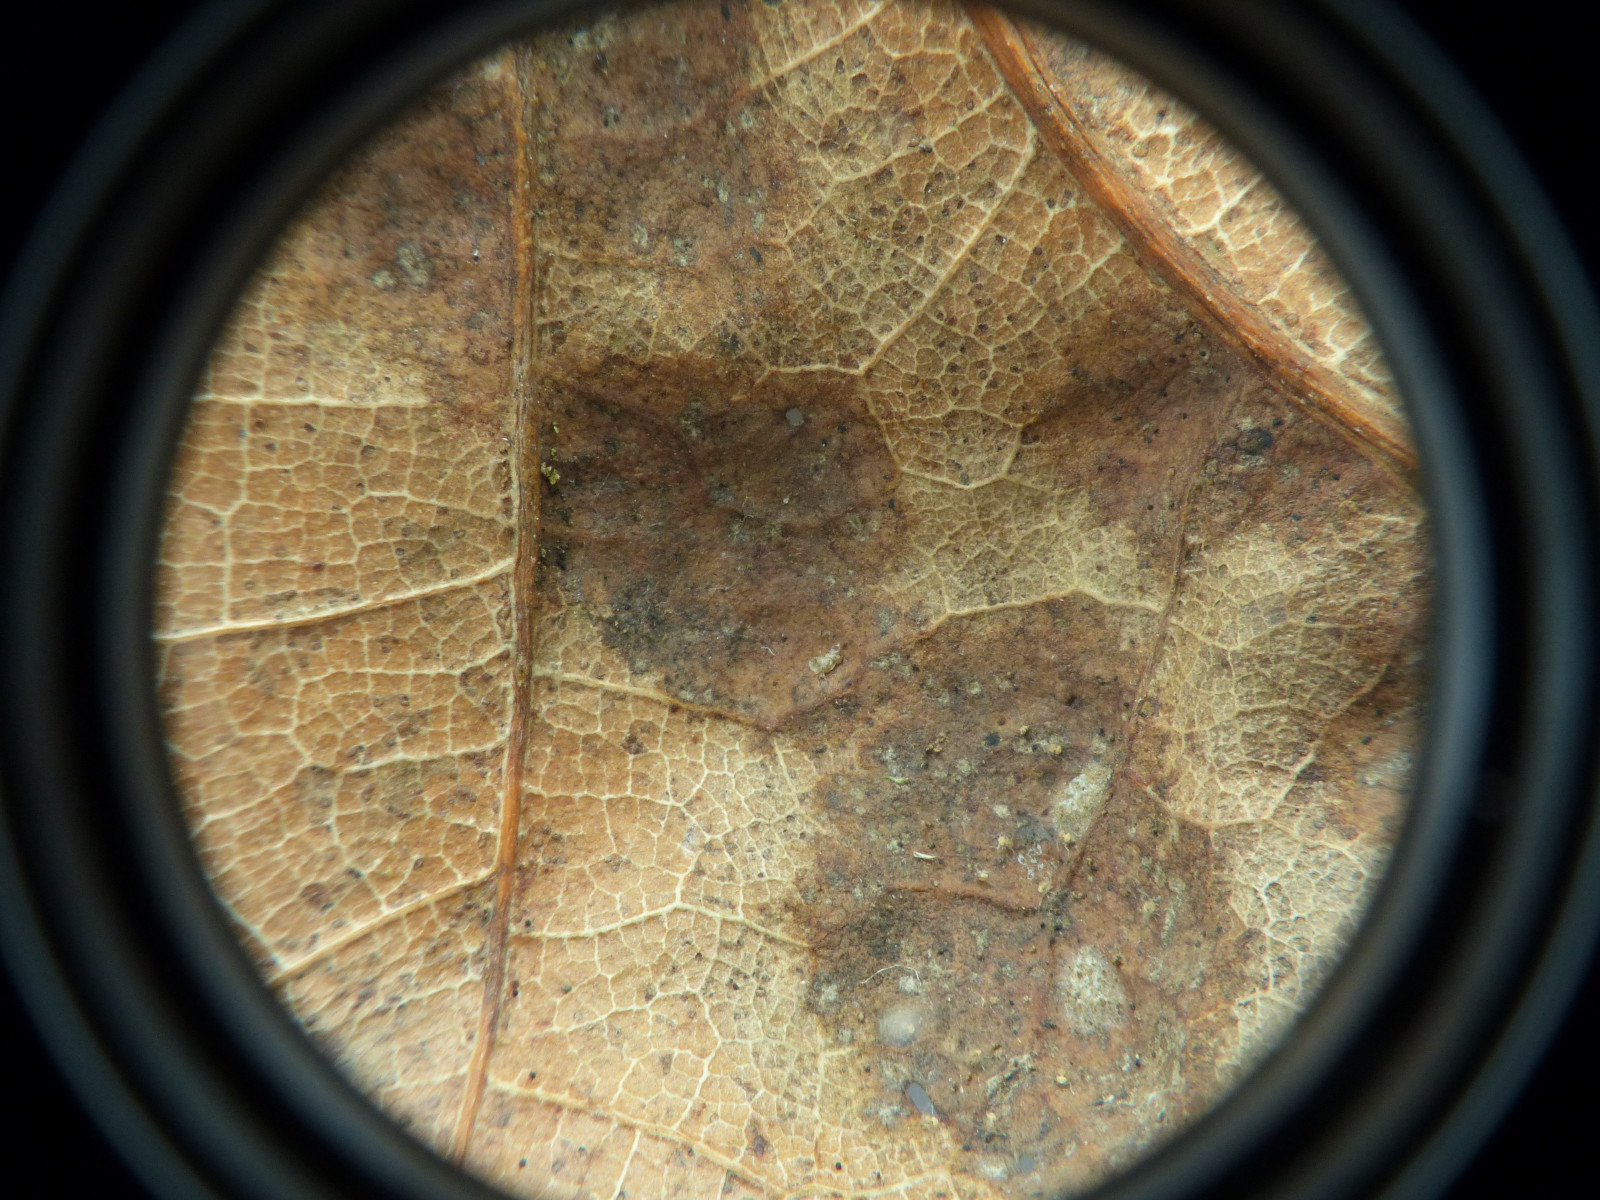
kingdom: Fungi
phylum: Ascomycota
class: Taphrinomycetes
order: Taphrinales
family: Taphrinaceae
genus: Taphrina
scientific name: Taphrina caerulescens
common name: Oak leaf blister
